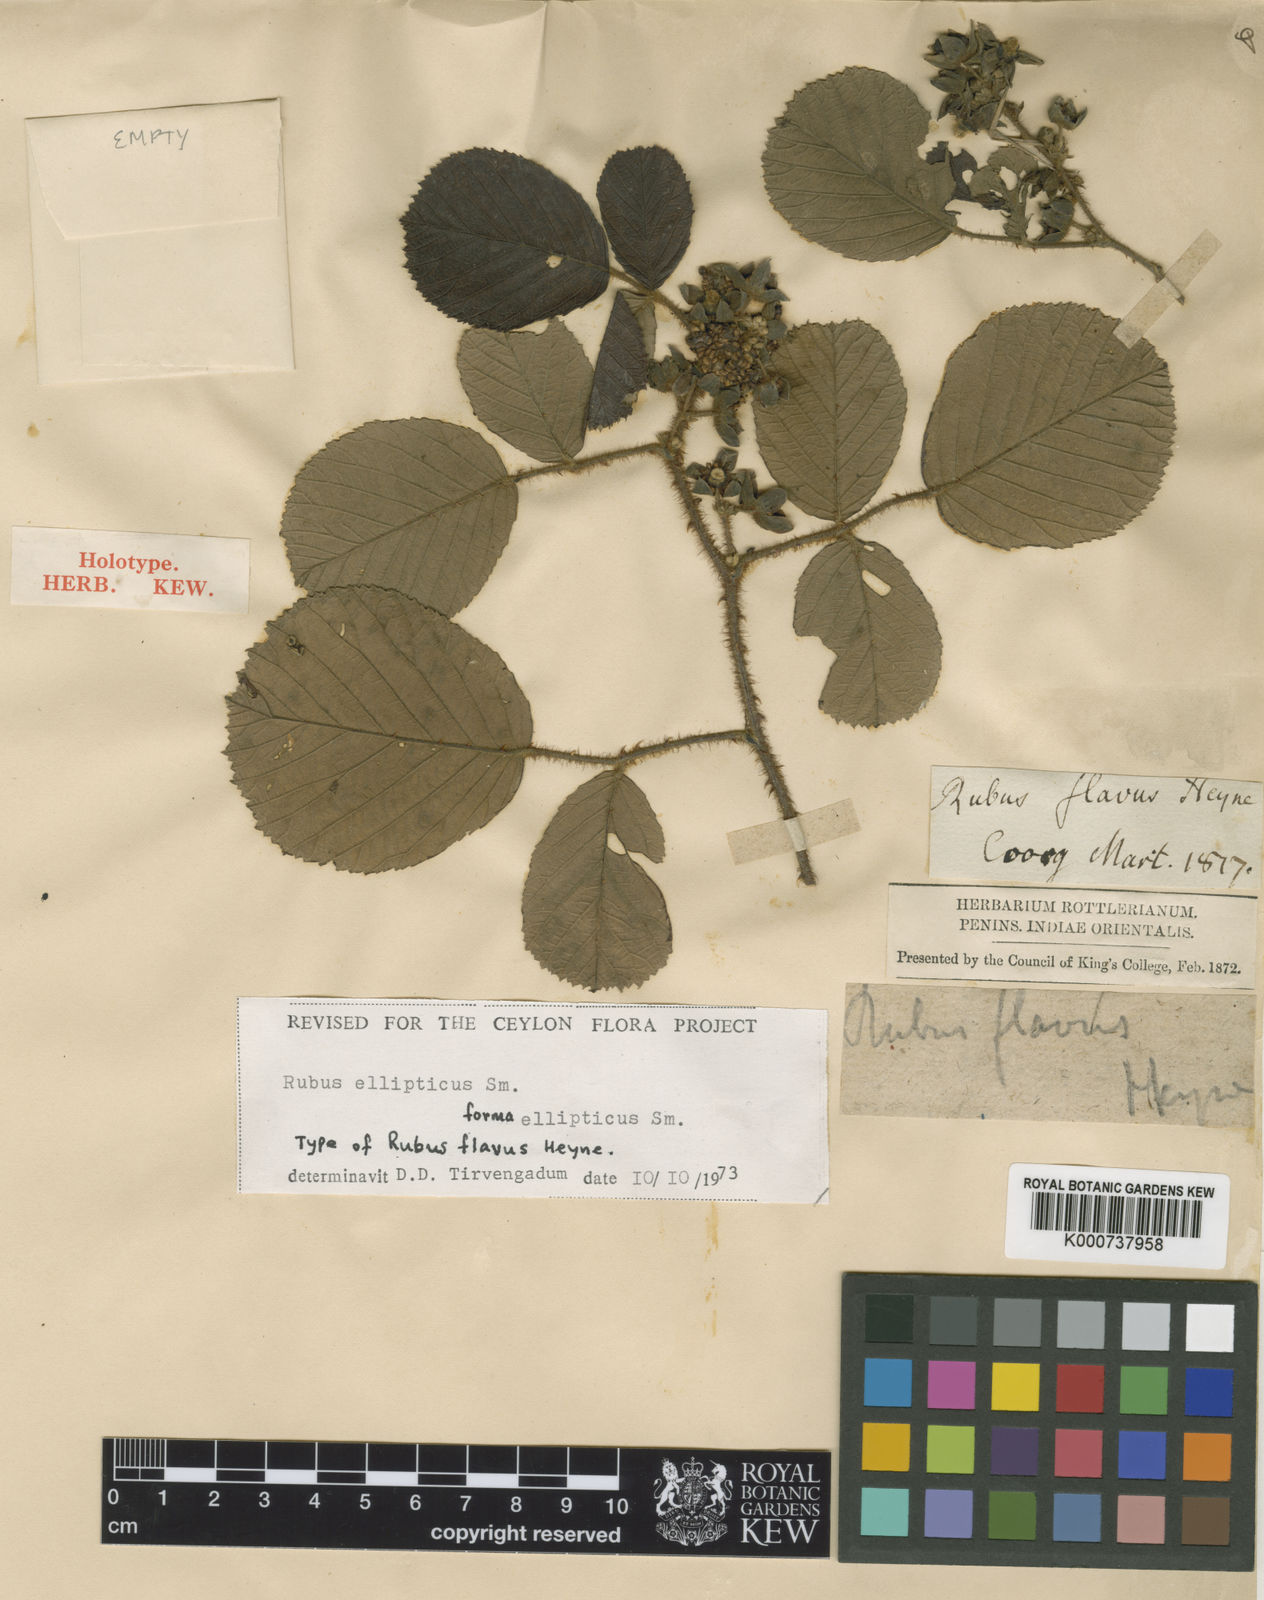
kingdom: Plantae
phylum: Tracheophyta
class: Magnoliopsida
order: Rosales
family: Rosaceae
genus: Rubus
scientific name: Rubus ellipticus
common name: Cheeseberry
